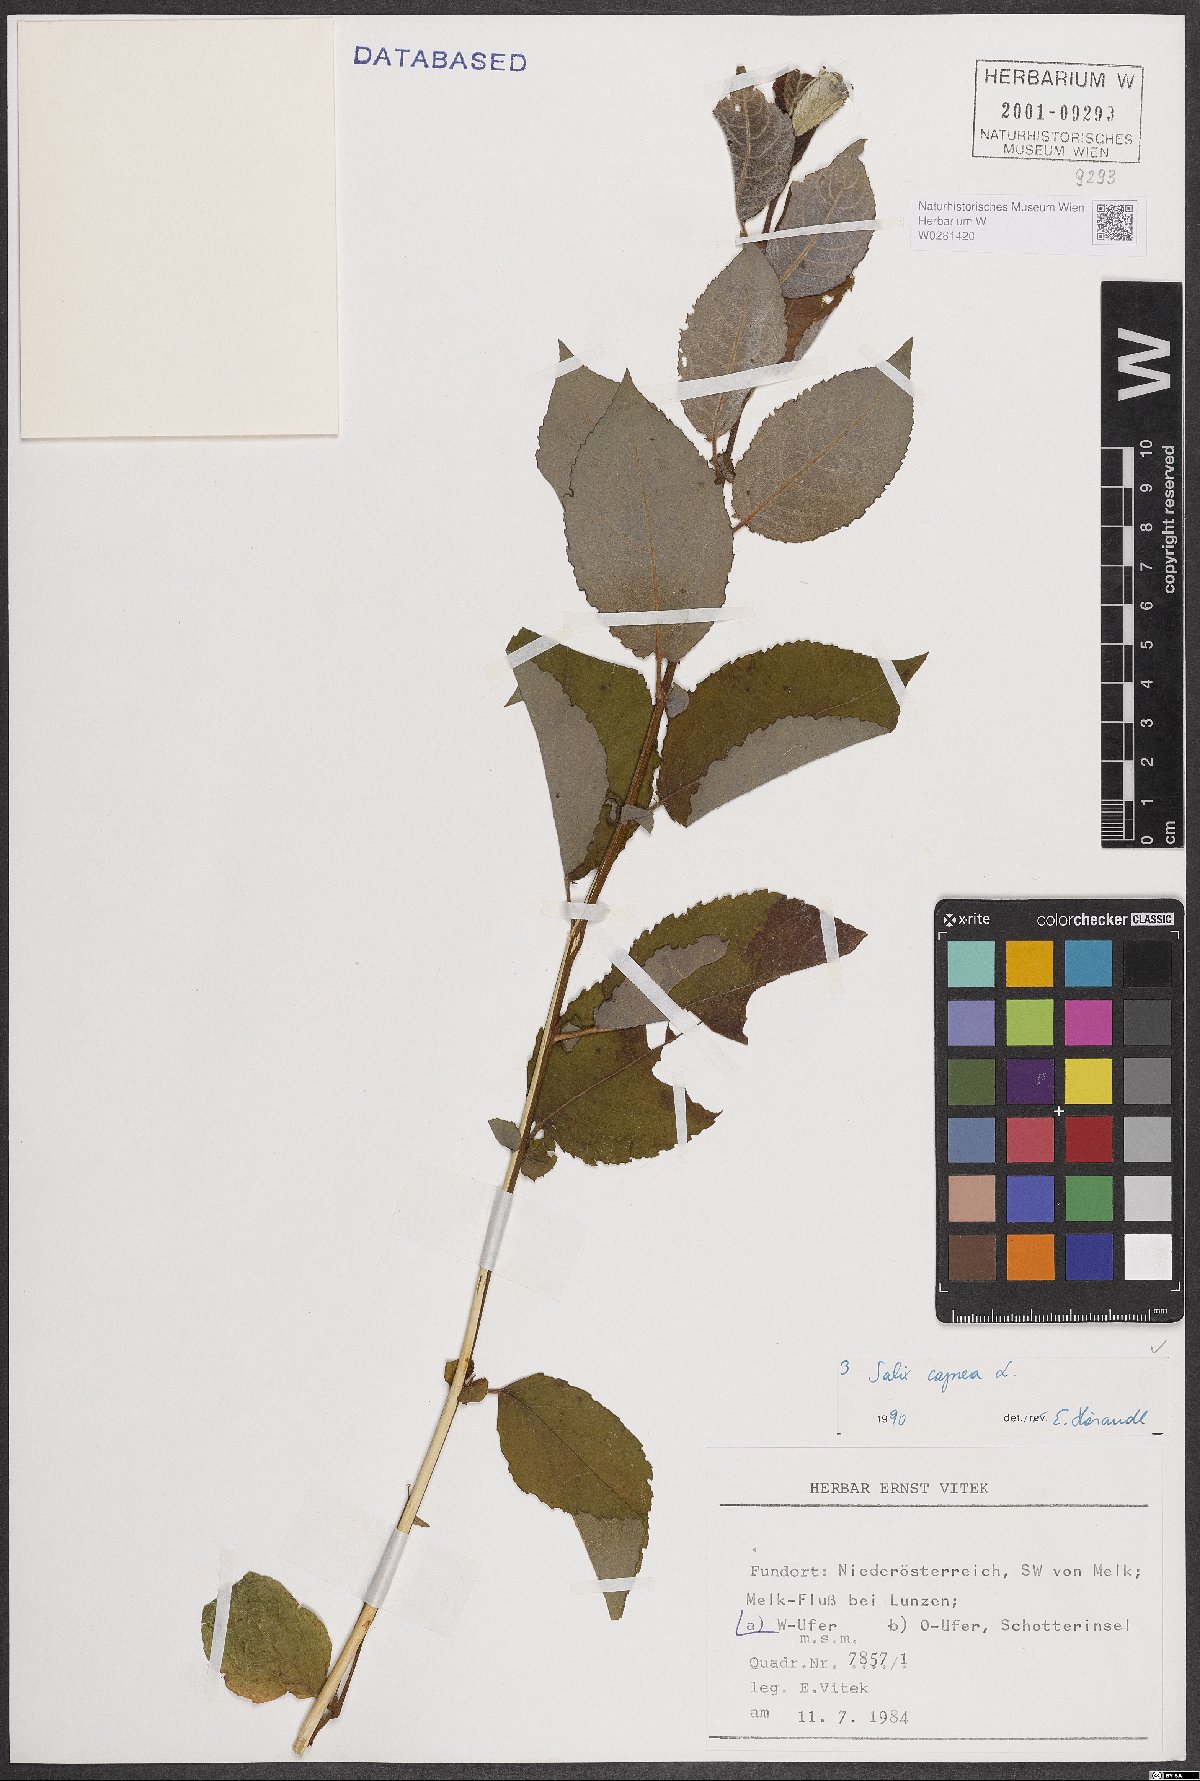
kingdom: Plantae
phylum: Tracheophyta
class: Magnoliopsida
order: Malpighiales
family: Salicaceae
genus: Salix
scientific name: Salix caprea
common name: Goat willow
